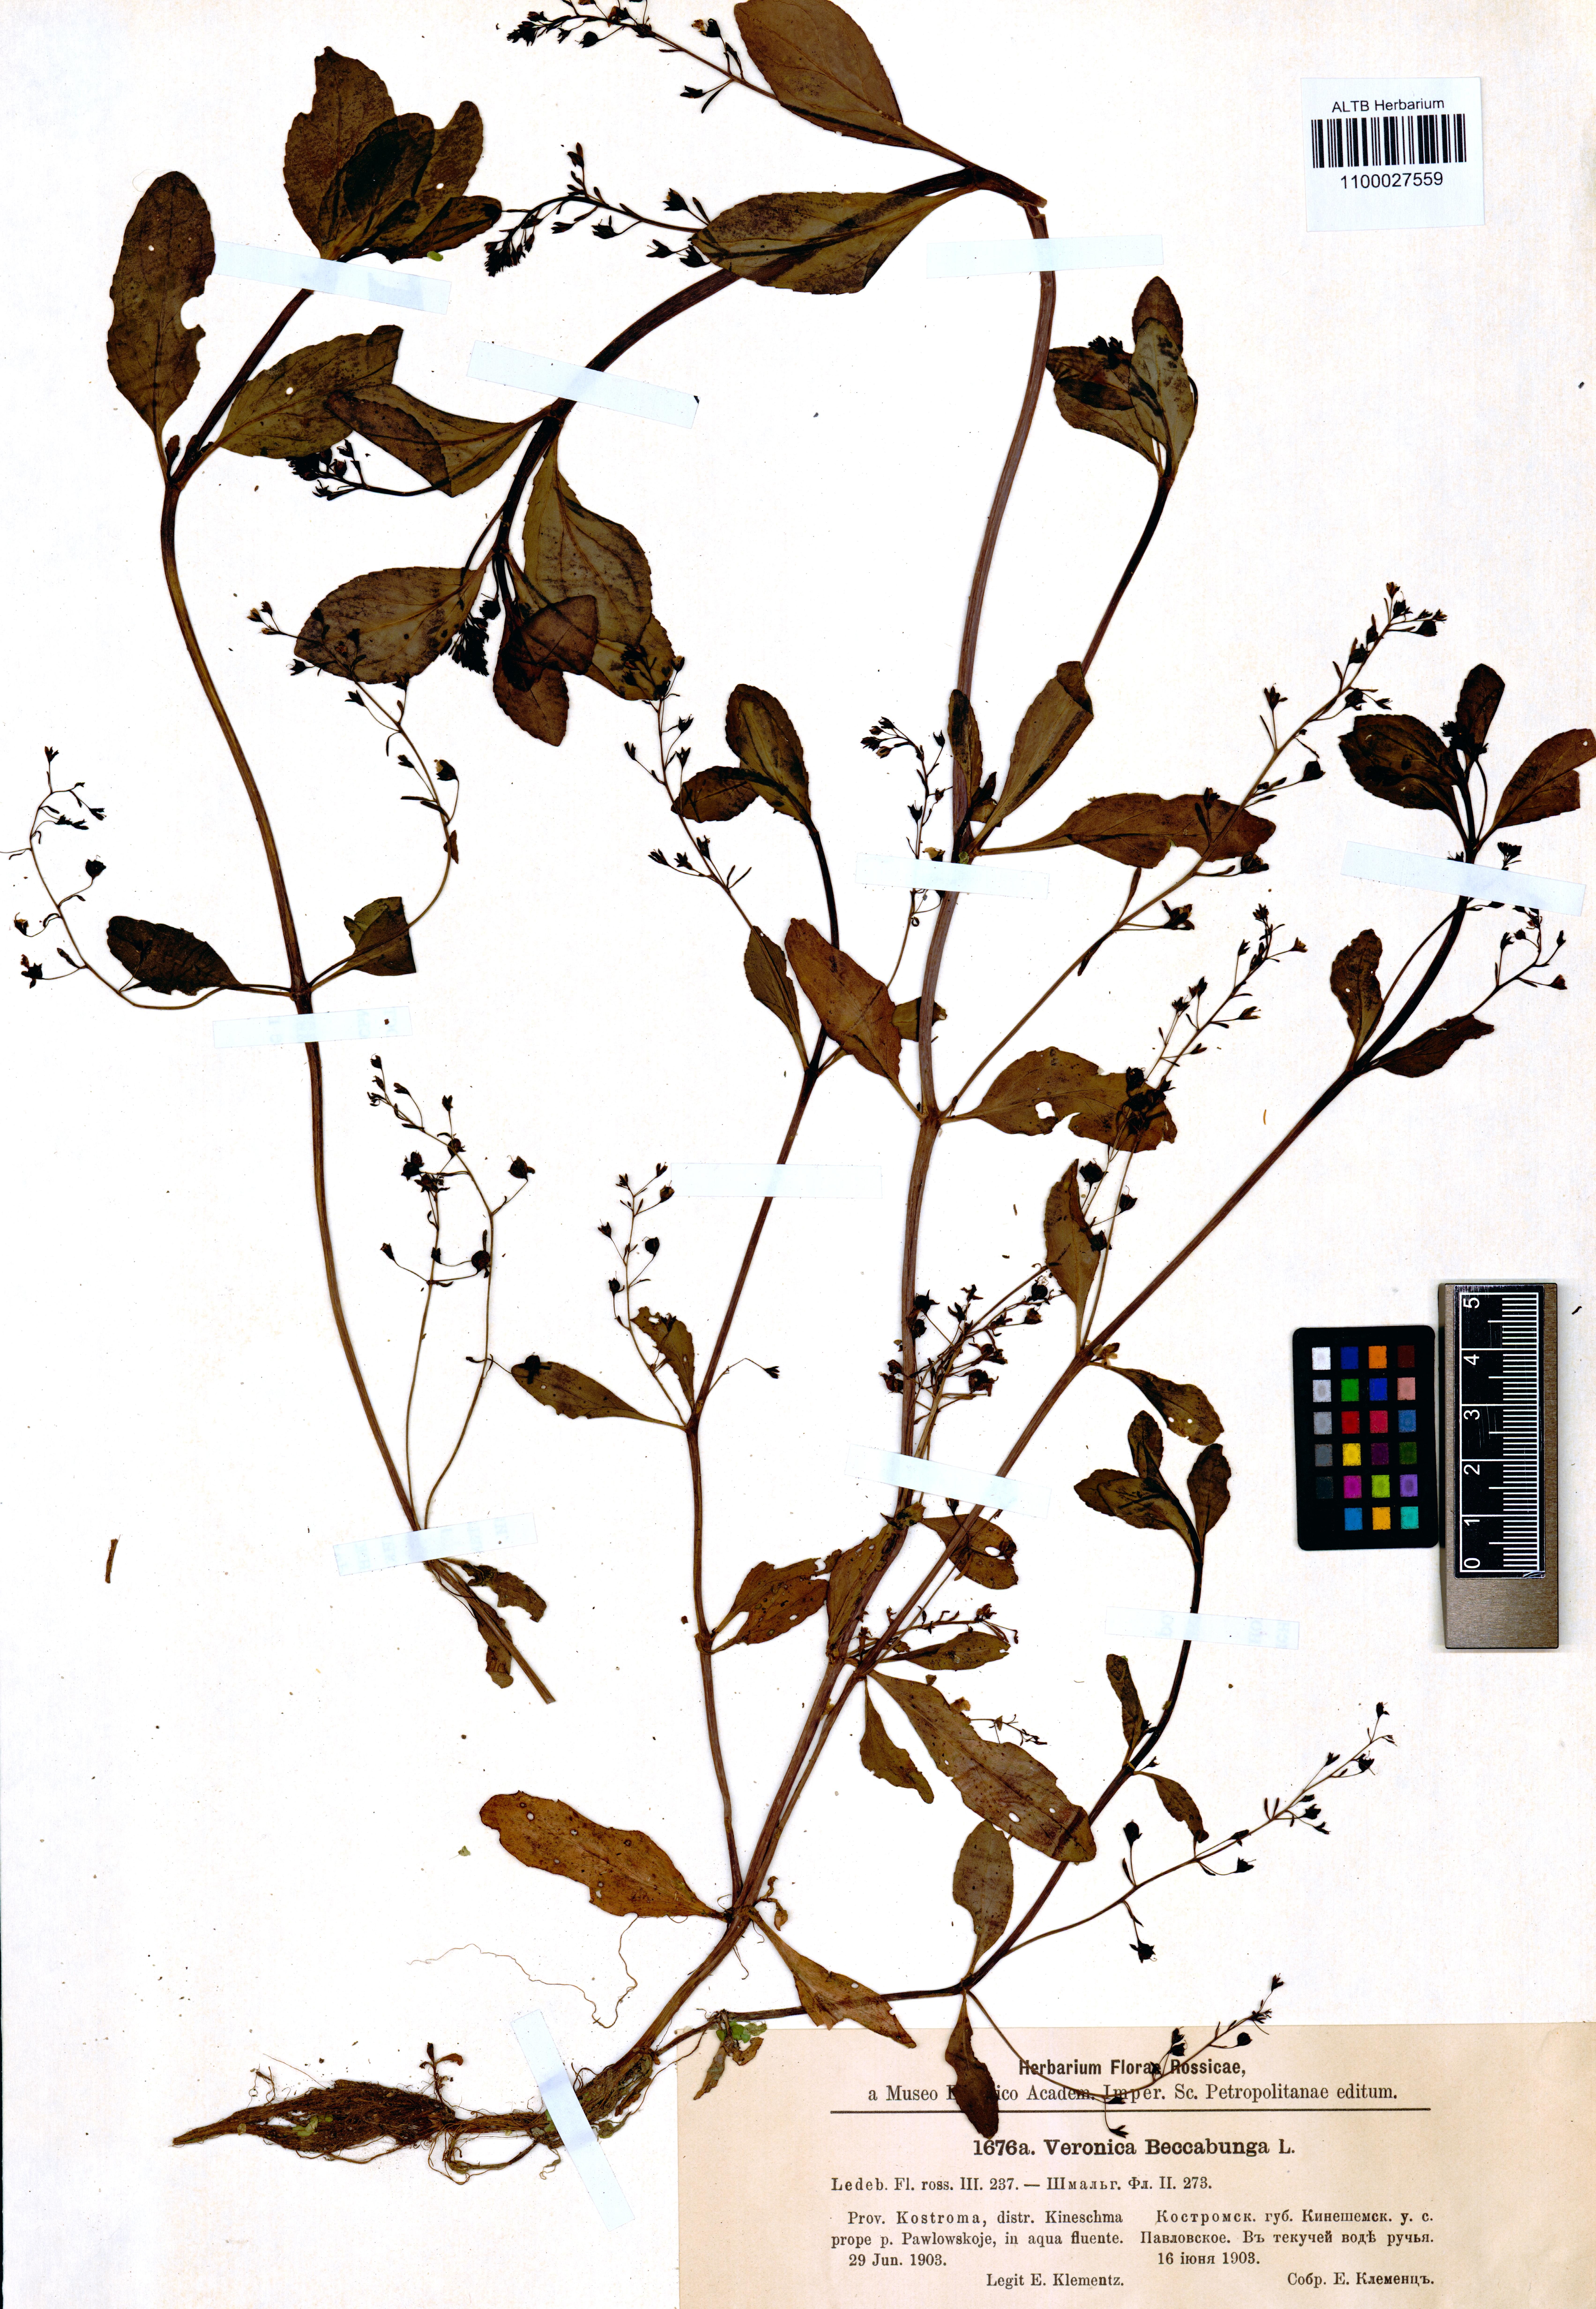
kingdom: Plantae
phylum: Tracheophyta
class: Magnoliopsida
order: Lamiales
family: Plantaginaceae
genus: Veronica
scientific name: Veronica beccabunga
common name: Brooklime
